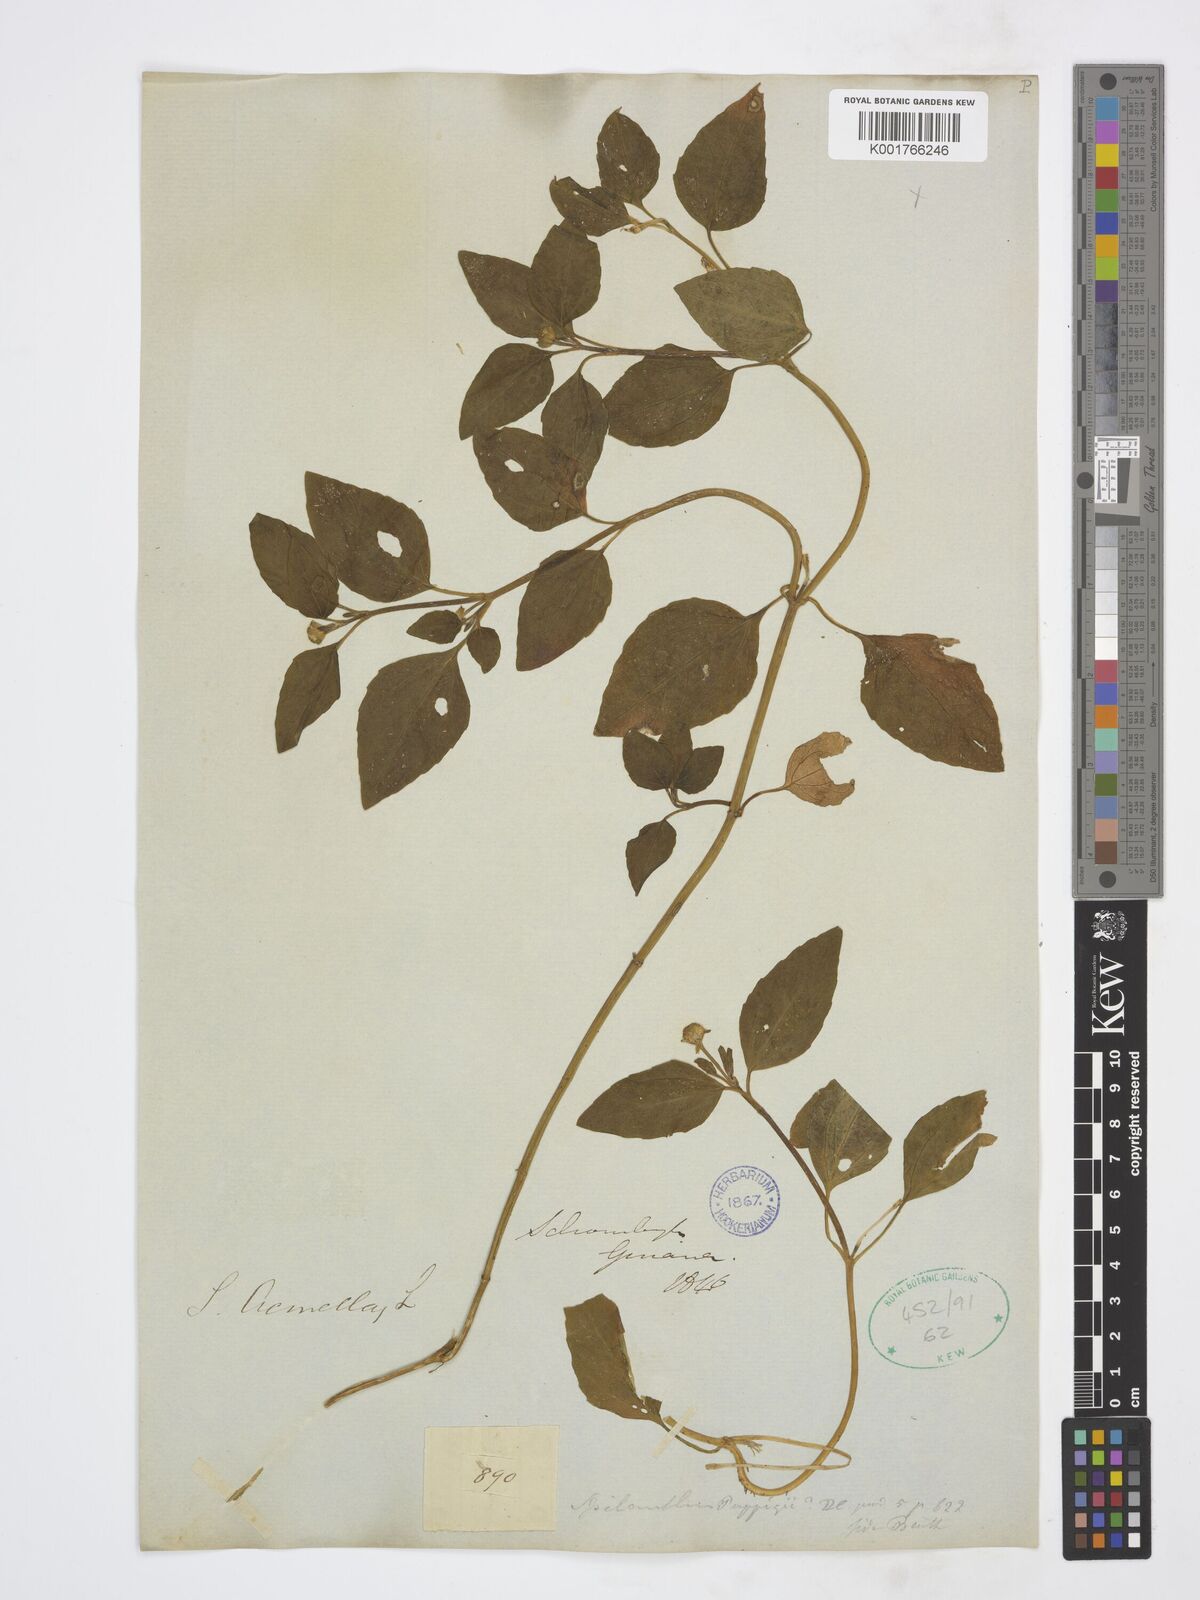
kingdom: Plantae
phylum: Tracheophyta
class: Magnoliopsida
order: Asterales
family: Asteraceae
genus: Acmella
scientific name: Acmella ciliata
